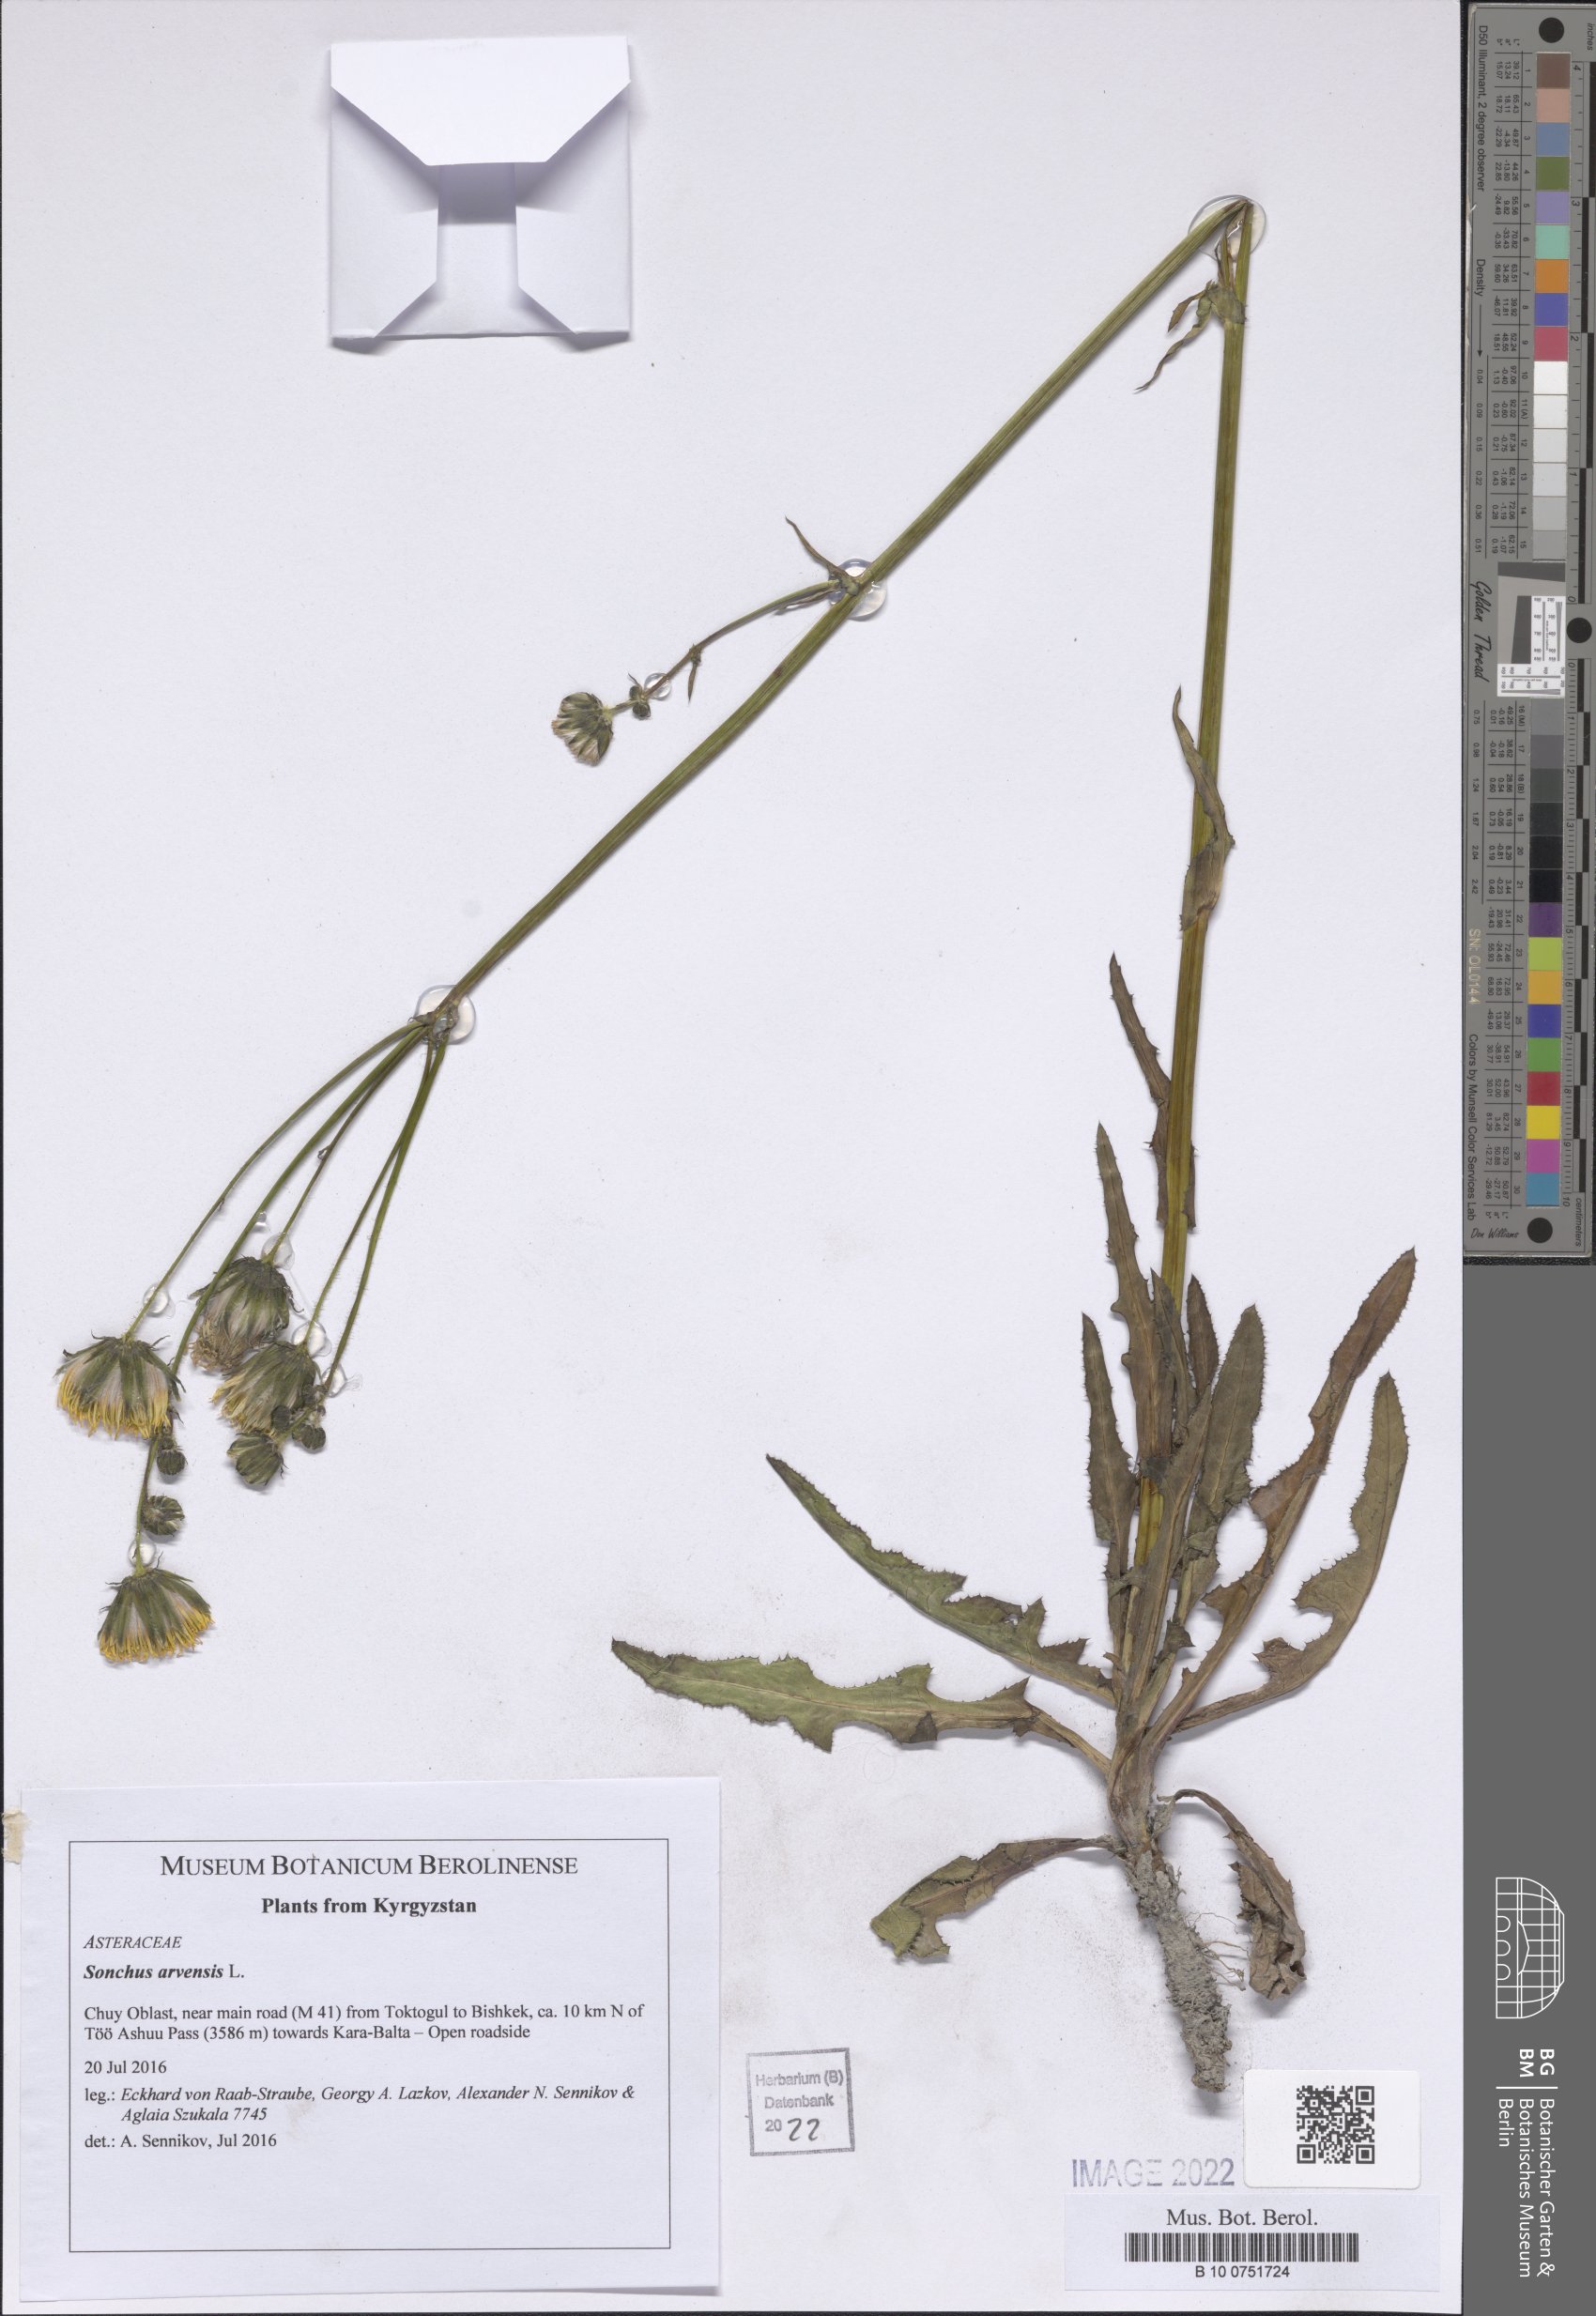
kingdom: Plantae
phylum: Tracheophyta
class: Magnoliopsida
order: Asterales
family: Asteraceae
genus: Sonchus
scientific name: Sonchus arvensis
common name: Perennial sow-thistle
